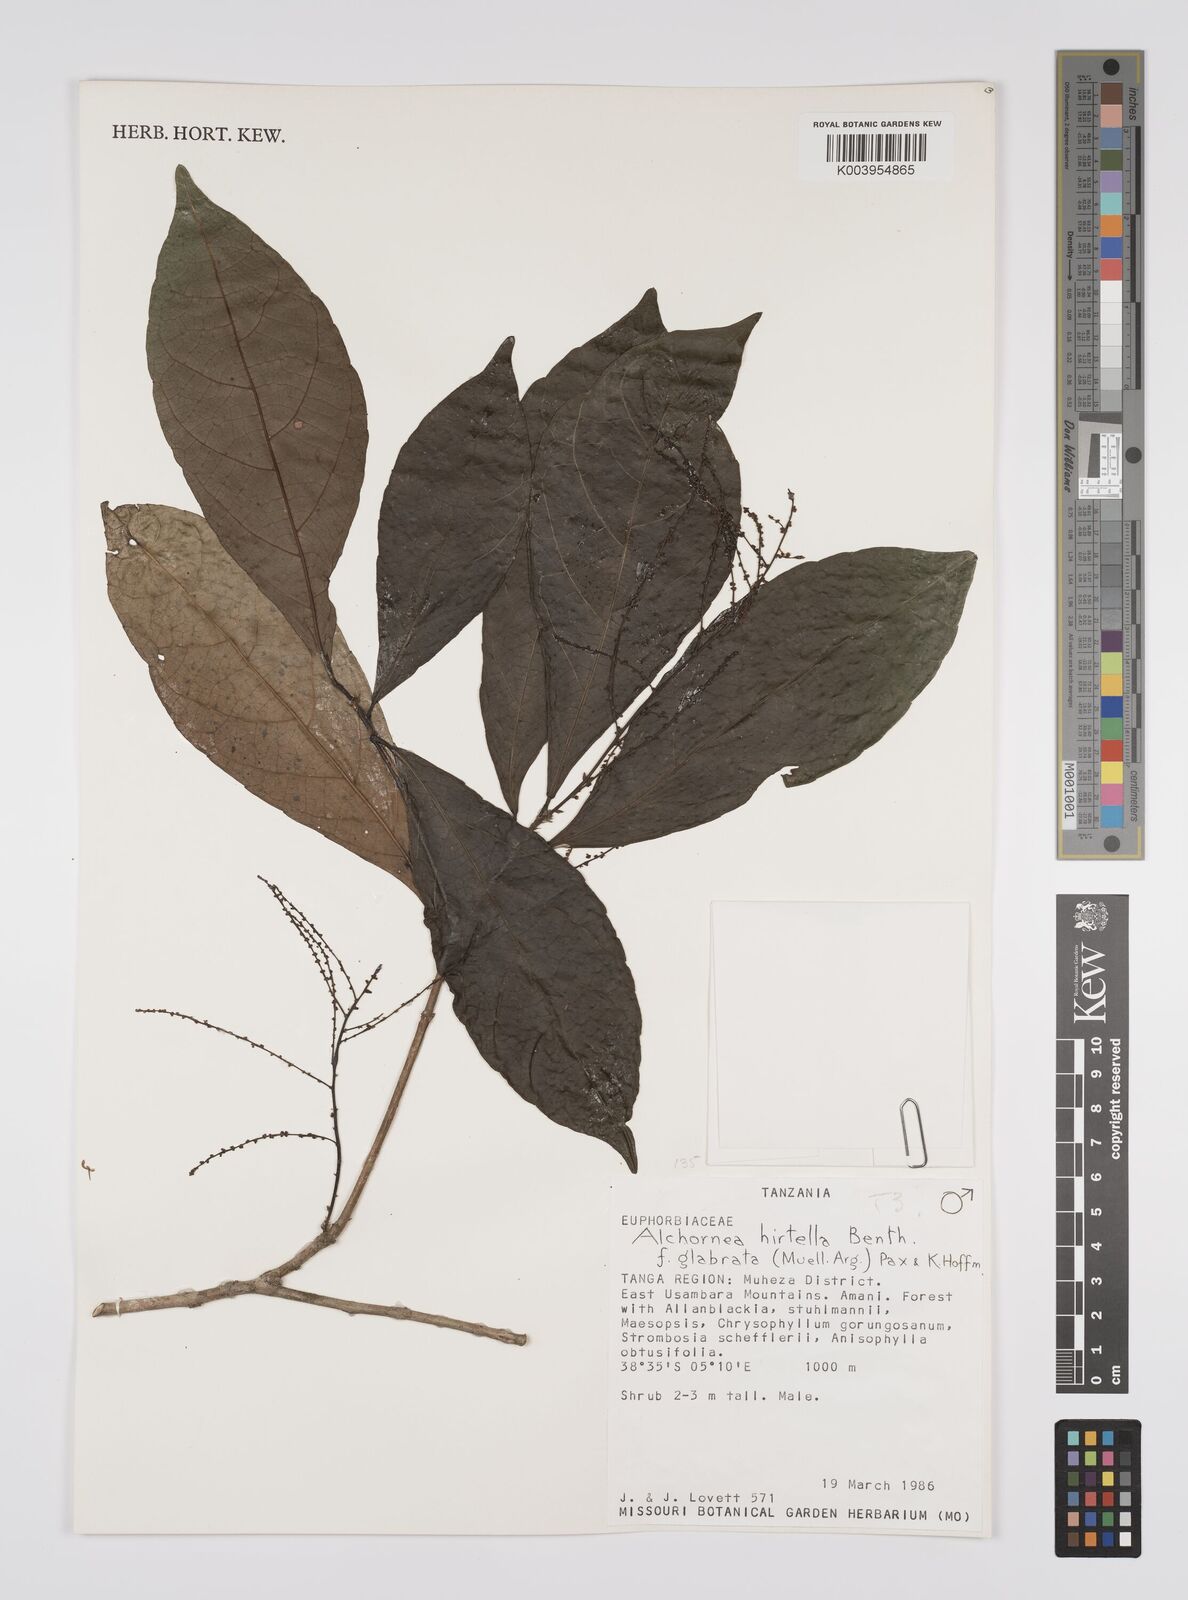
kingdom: Plantae
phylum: Tracheophyta
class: Magnoliopsida
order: Malpighiales
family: Euphorbiaceae
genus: Alchornea
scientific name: Alchornea hirtella
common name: Forest bead-string
